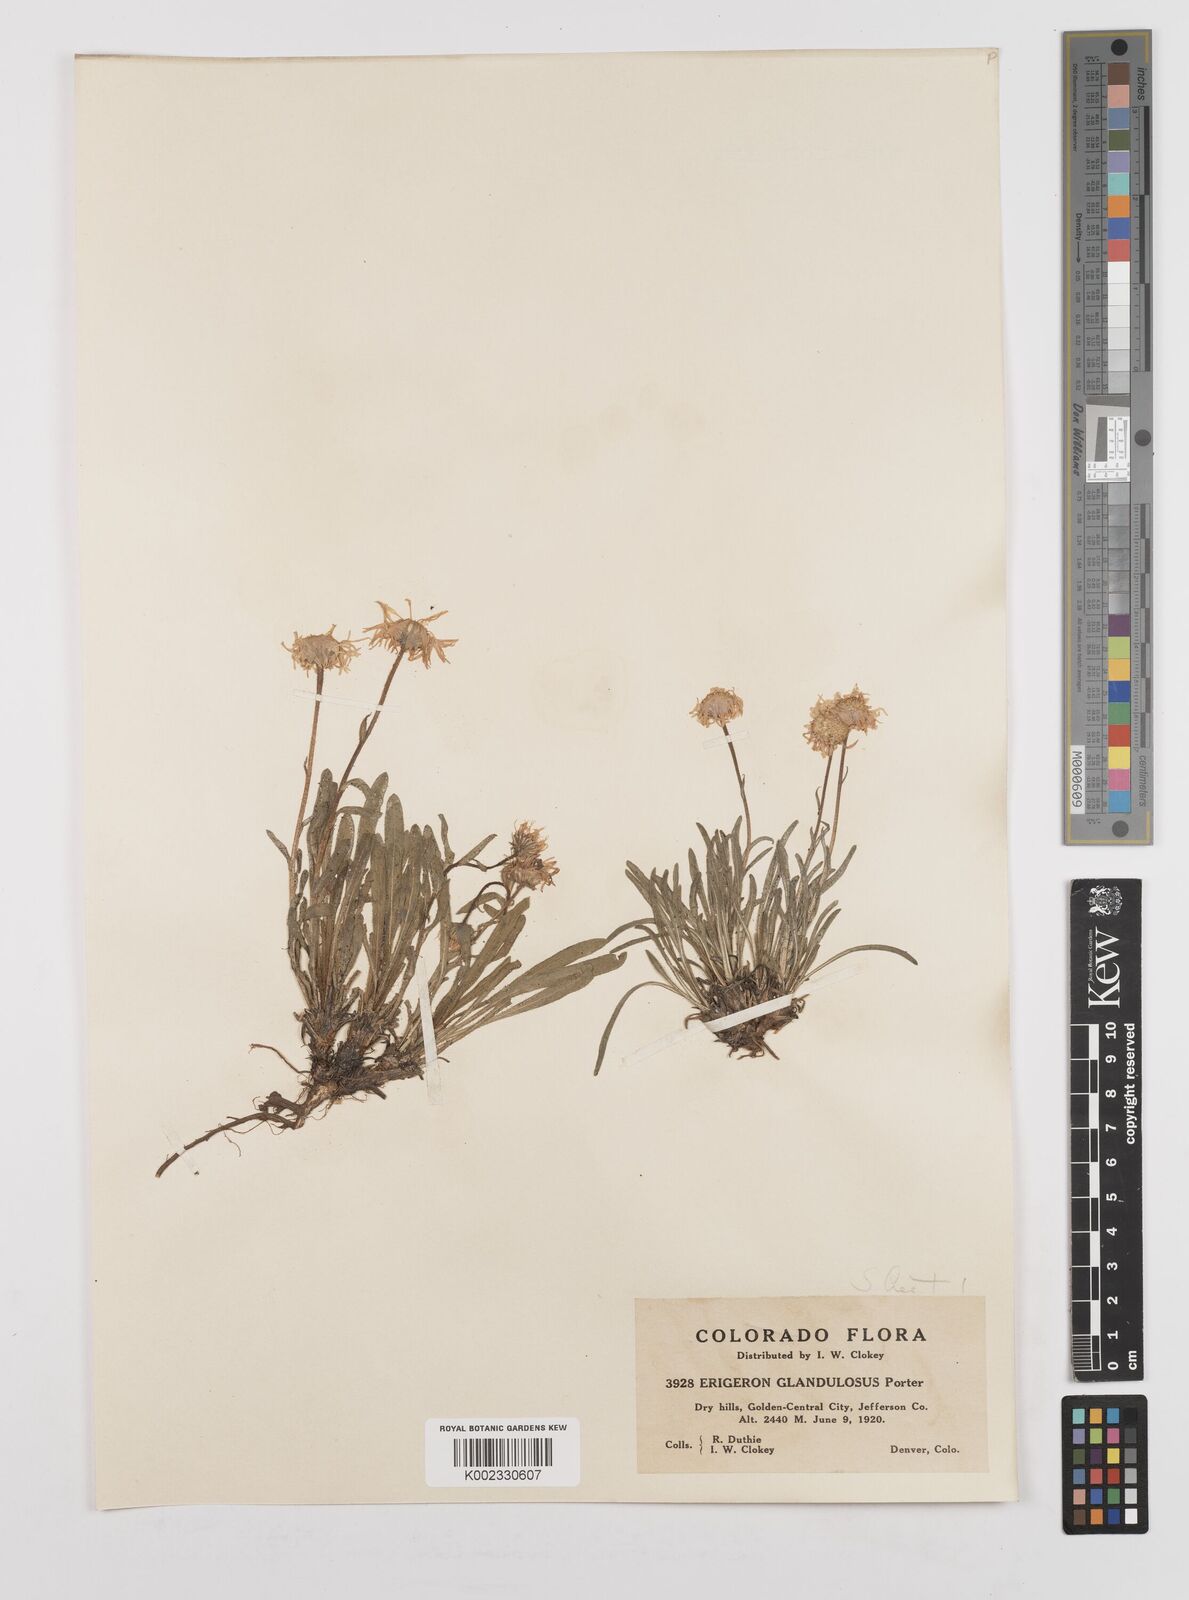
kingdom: Plantae
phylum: Tracheophyta
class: Magnoliopsida
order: Asterales
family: Asteraceae
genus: Erigeron
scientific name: Erigeron vetensis
